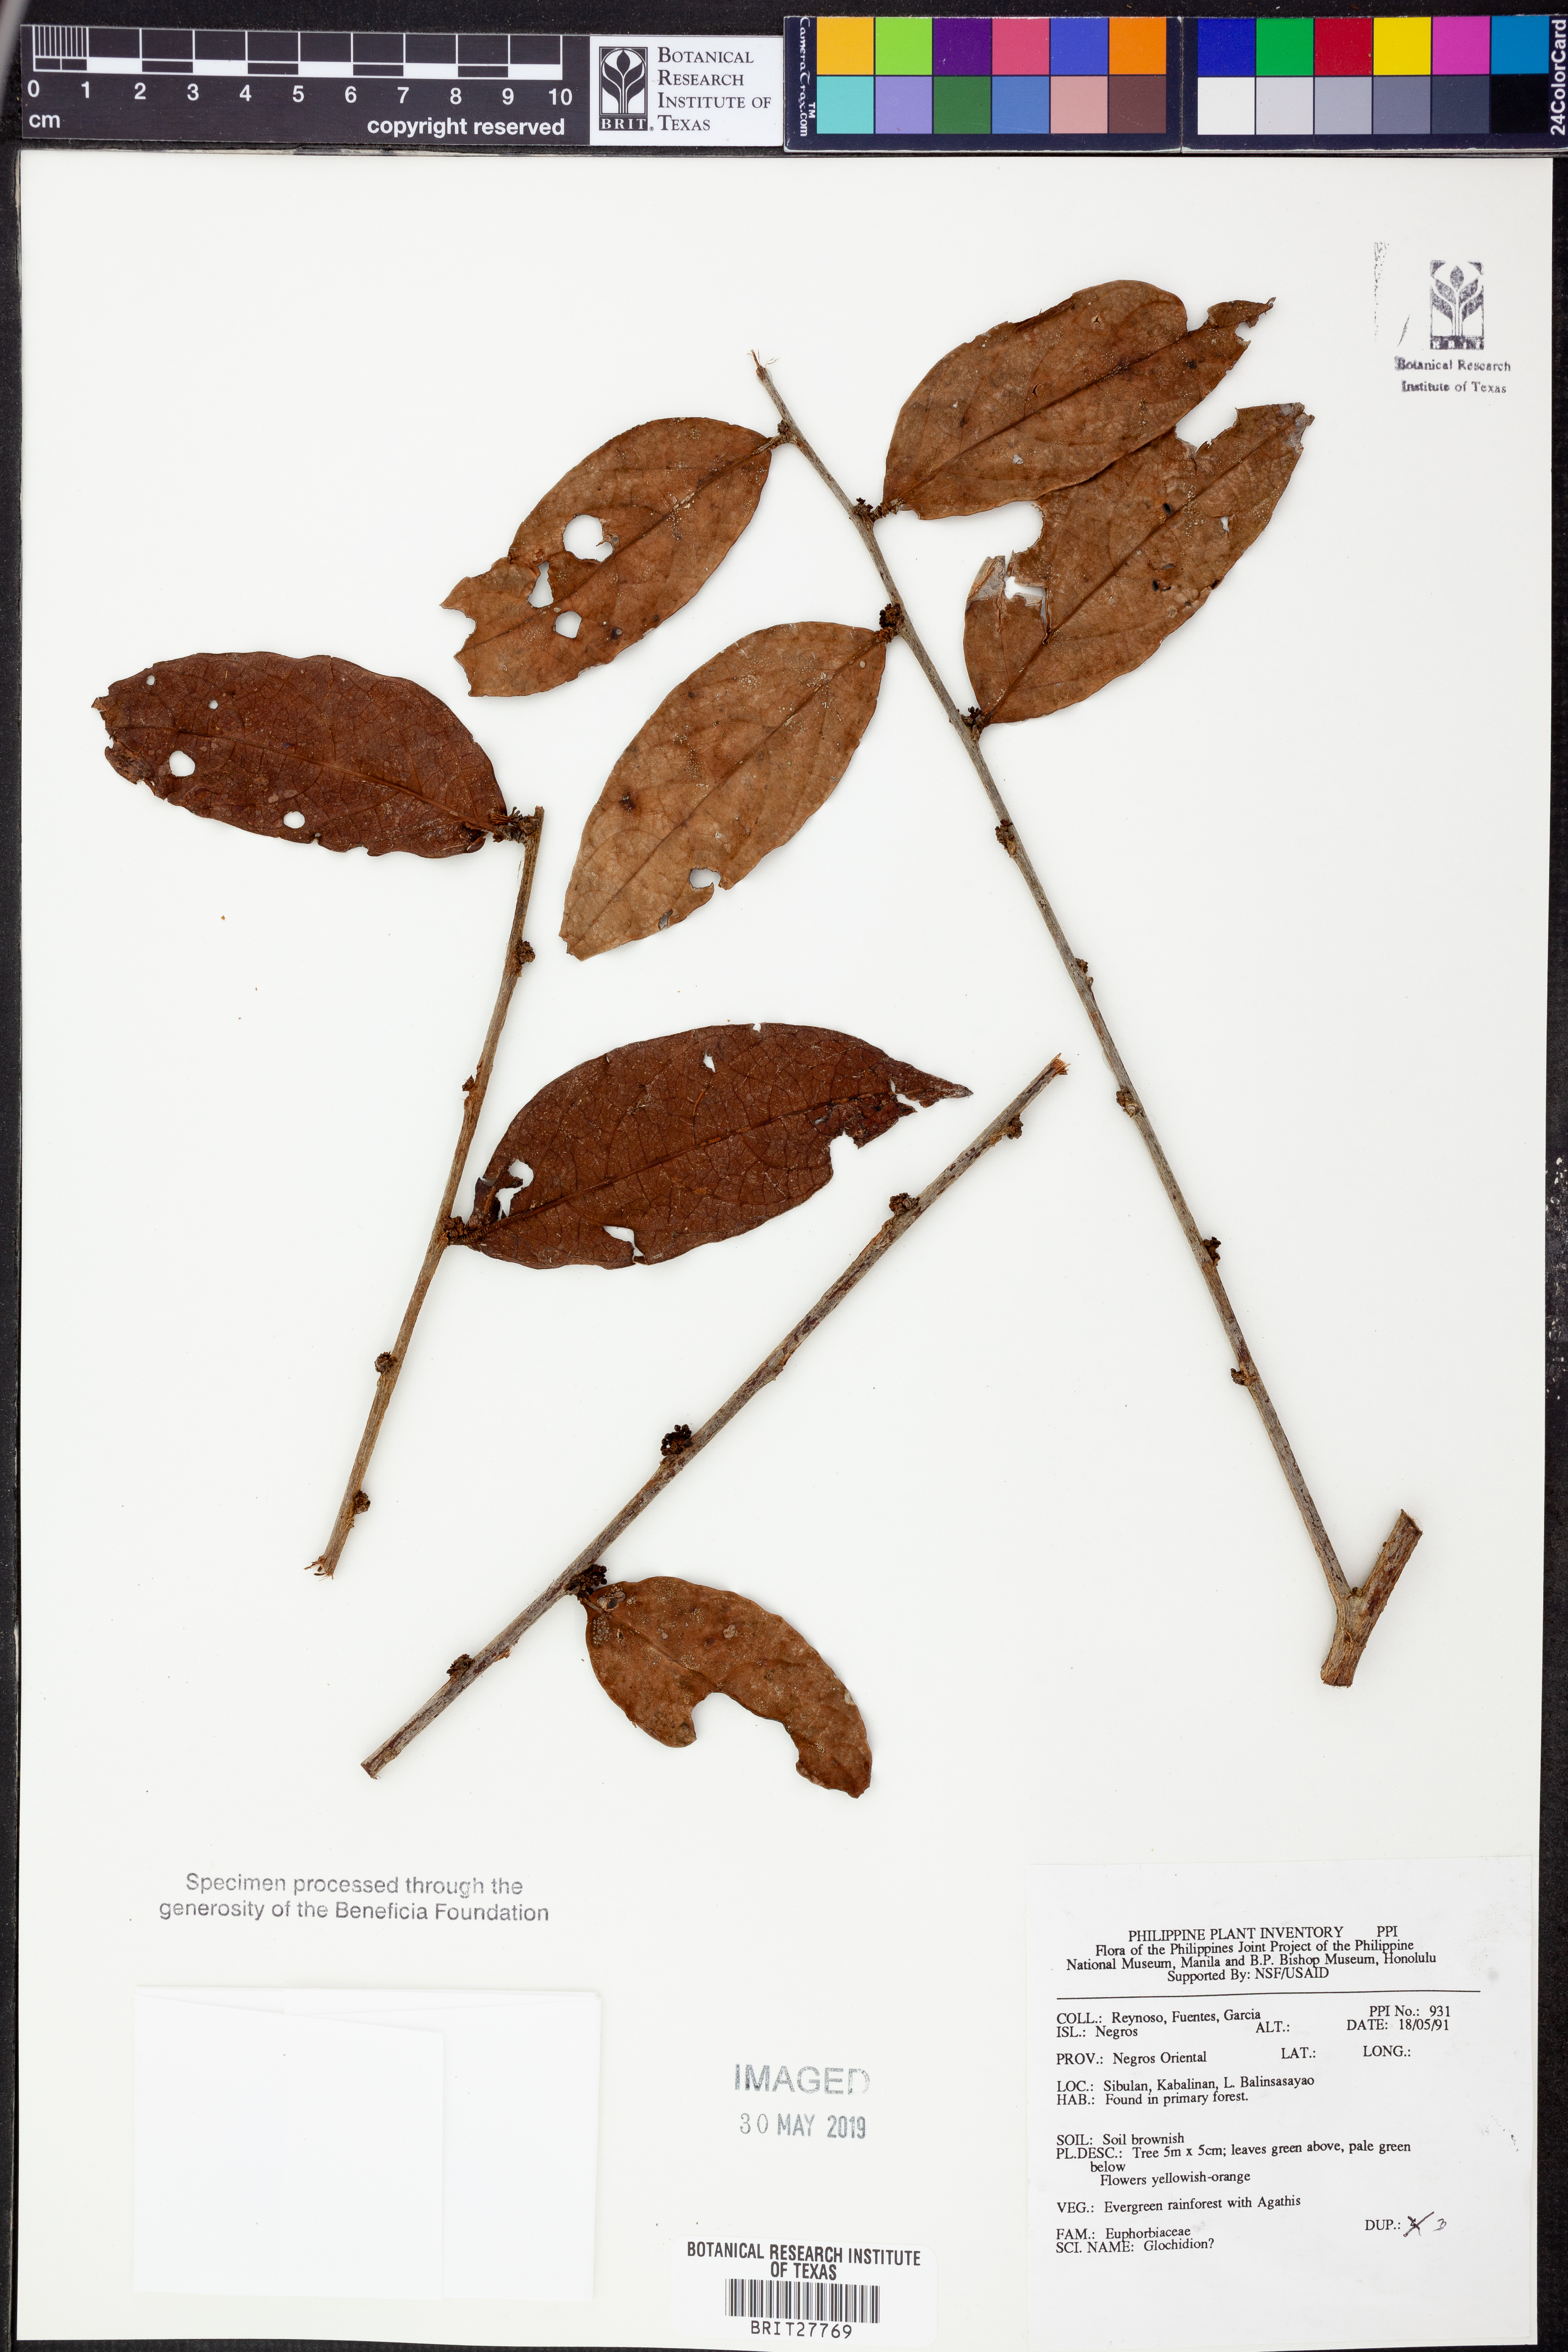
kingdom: Plantae
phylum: Tracheophyta
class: Magnoliopsida
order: Malpighiales
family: Phyllanthaceae
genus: Glochidion
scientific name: Glochidion
